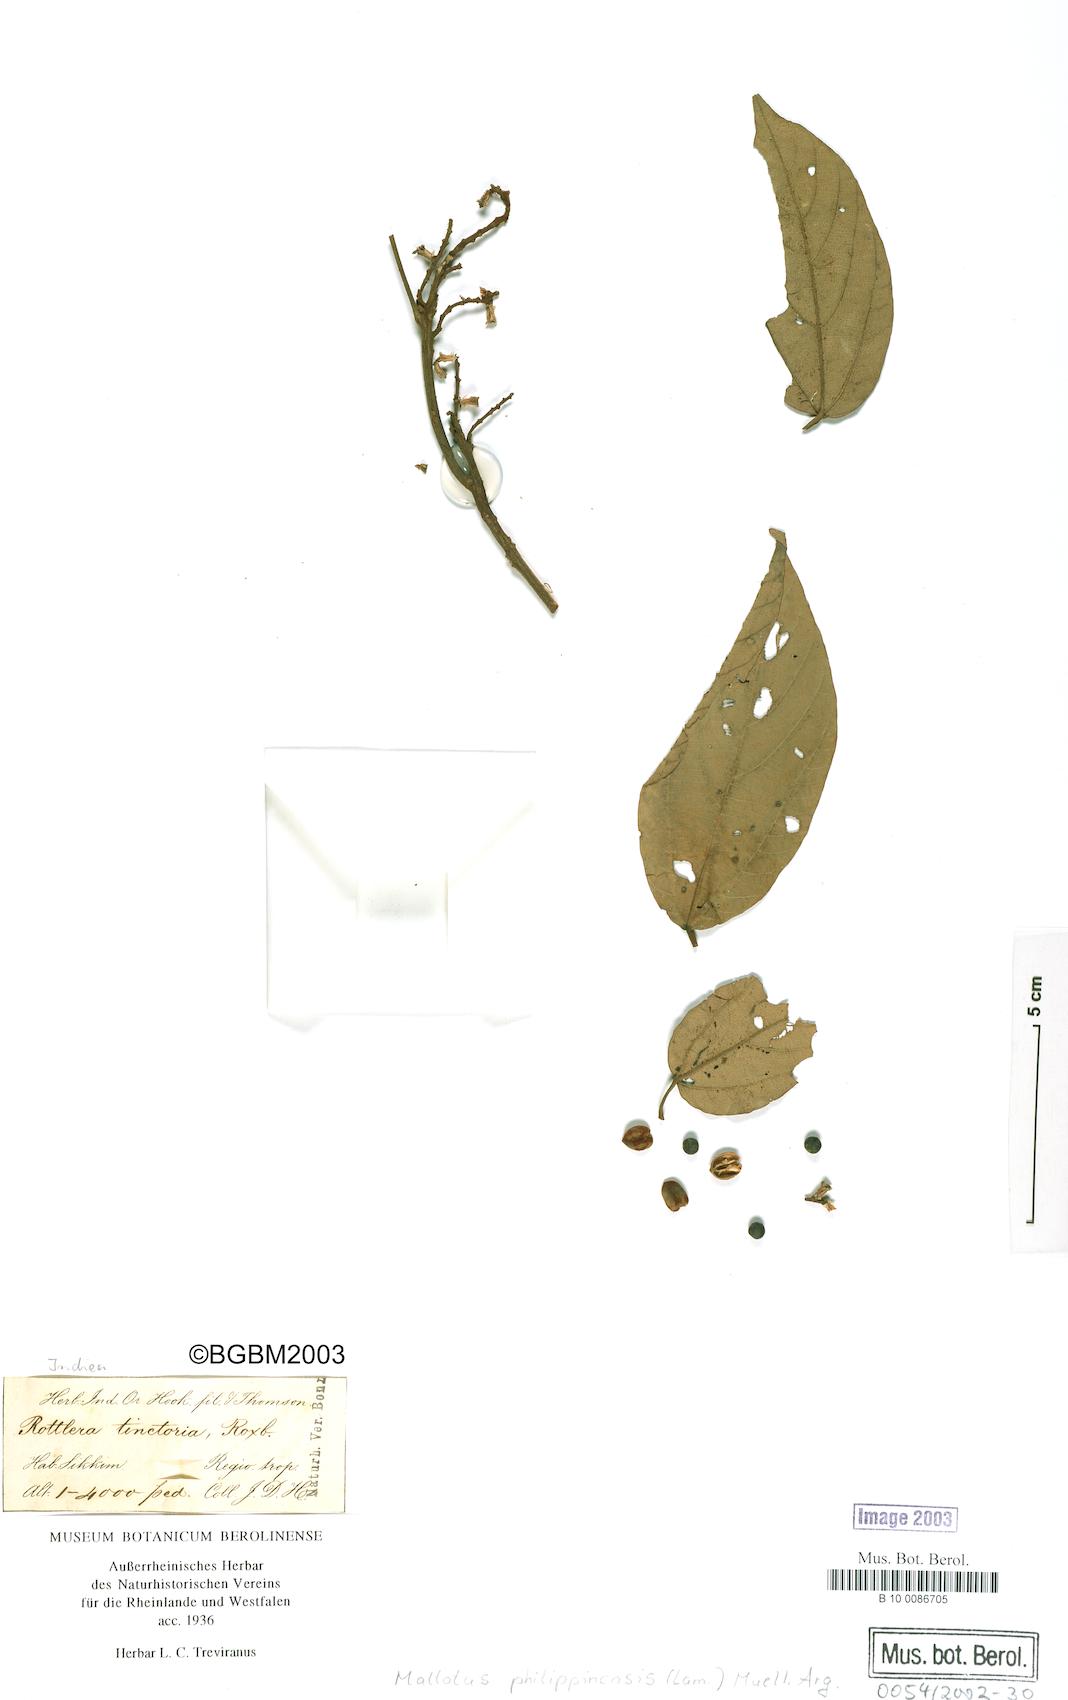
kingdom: Plantae
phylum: Tracheophyta
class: Magnoliopsida
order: Malpighiales
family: Euphorbiaceae
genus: Mallotus
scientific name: Mallotus philippensis
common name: Kamala tree
